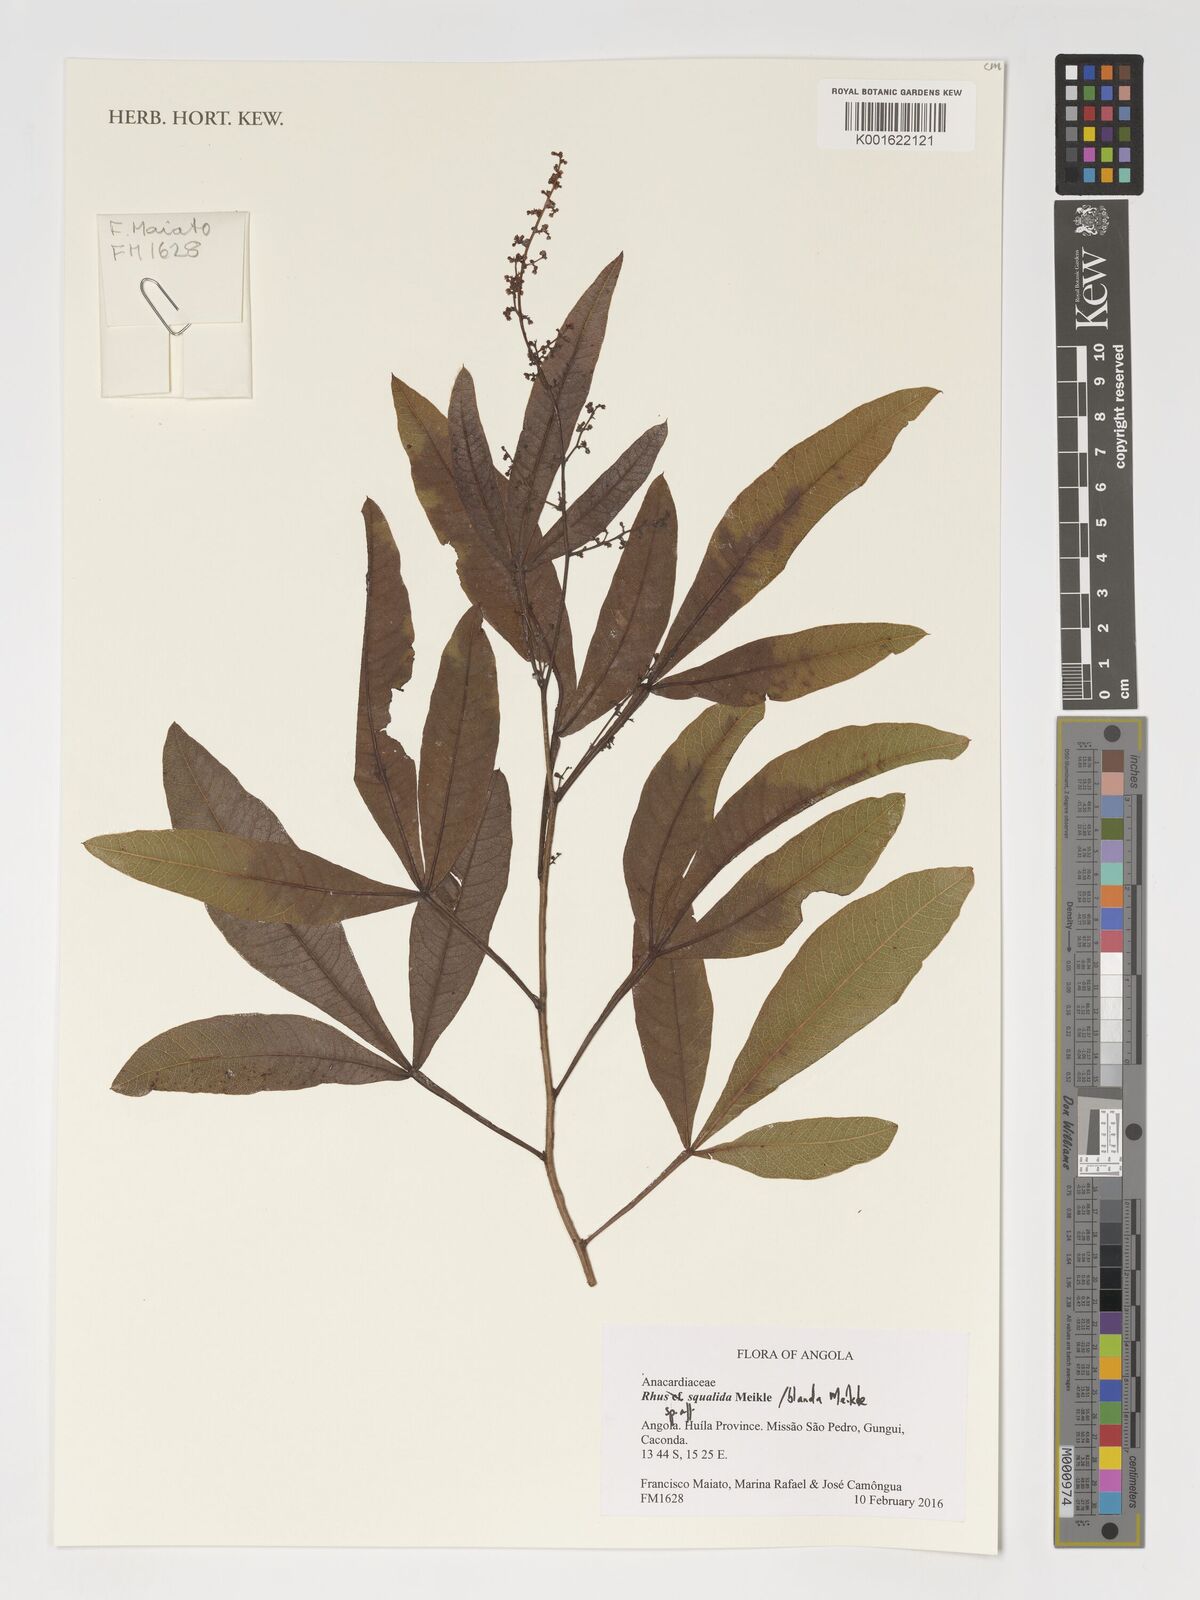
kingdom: Plantae
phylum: Tracheophyta
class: Magnoliopsida
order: Sapindales
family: Anacardiaceae
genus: Searsia
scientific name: Searsia squalida
